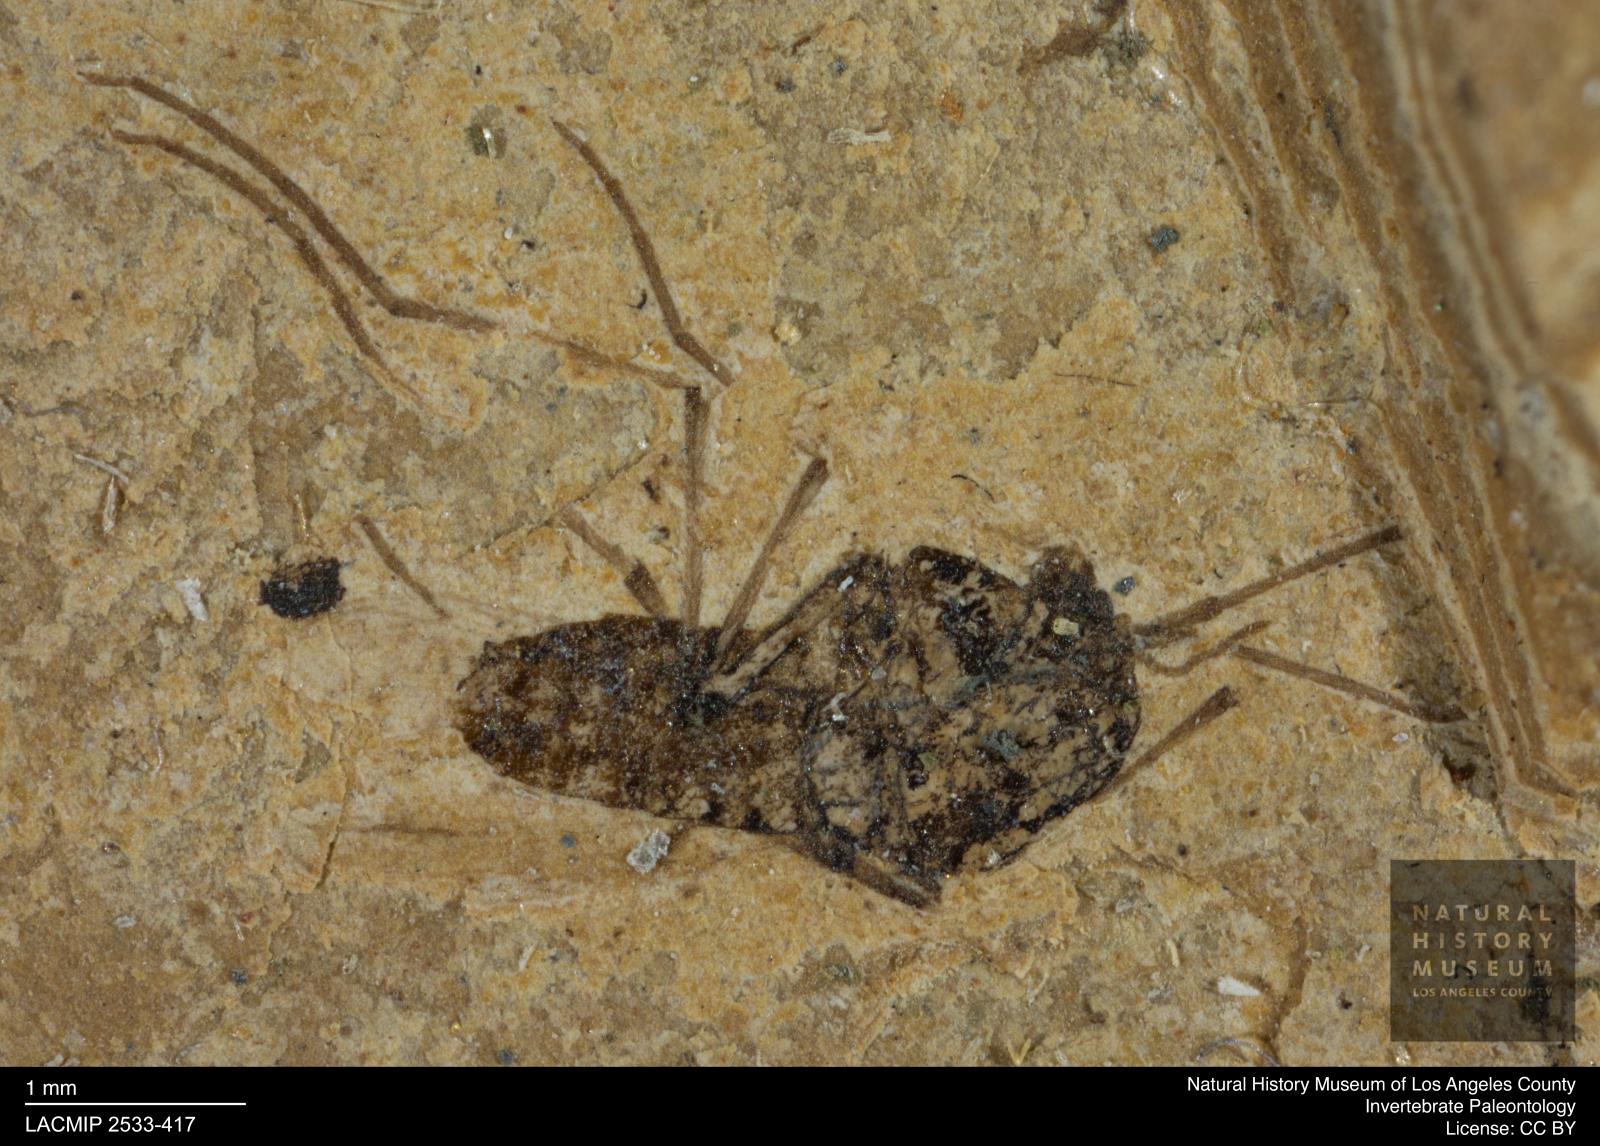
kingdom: Animalia
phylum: Arthropoda
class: Insecta
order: Diptera
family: Chironomidae
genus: Tanypus
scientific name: Tanypus fuscus
